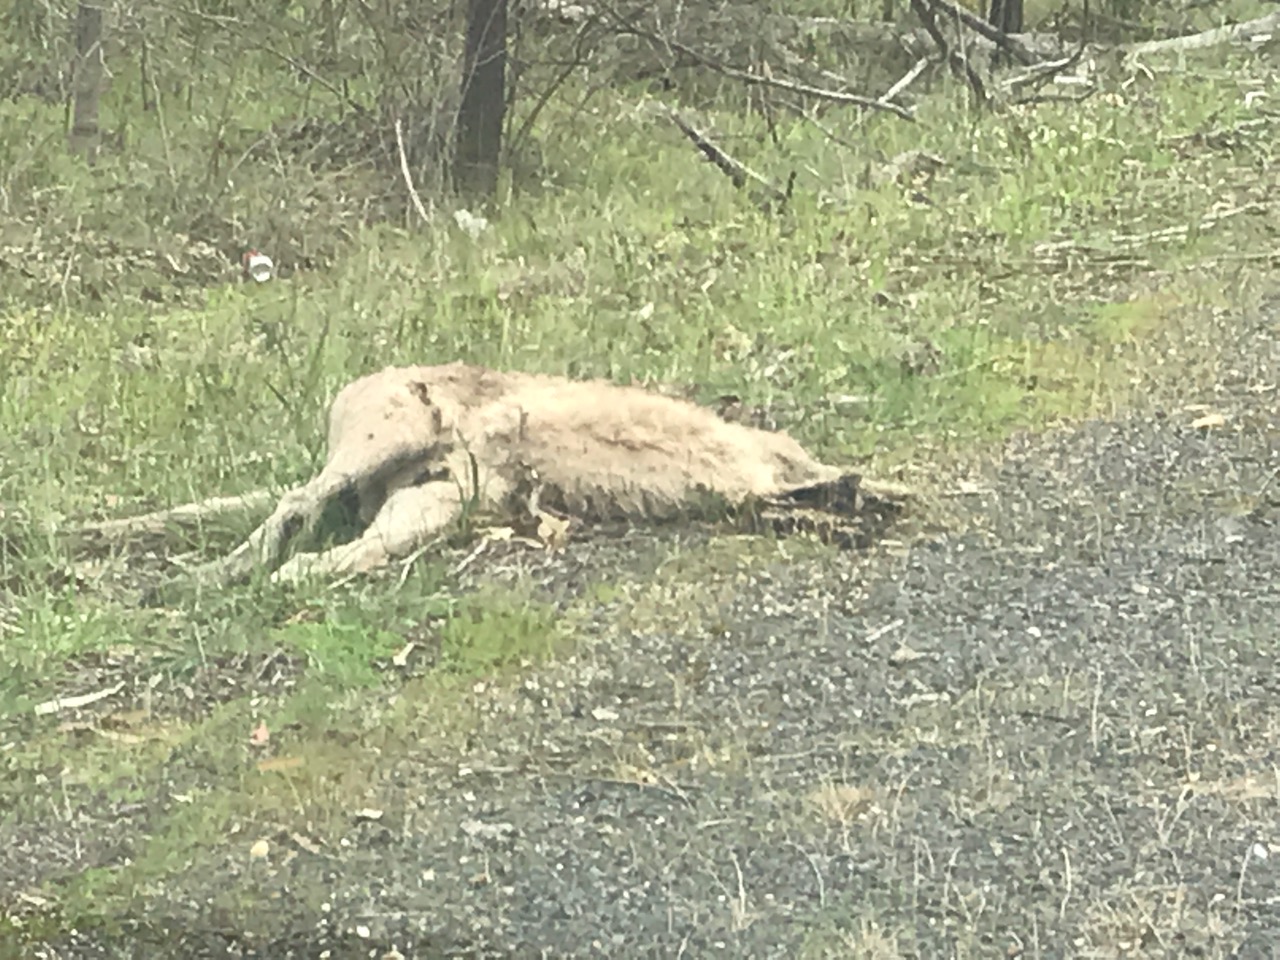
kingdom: Animalia
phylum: Chordata
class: Mammalia
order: Diprotodontia
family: Macropodidae
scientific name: Macropodidae
